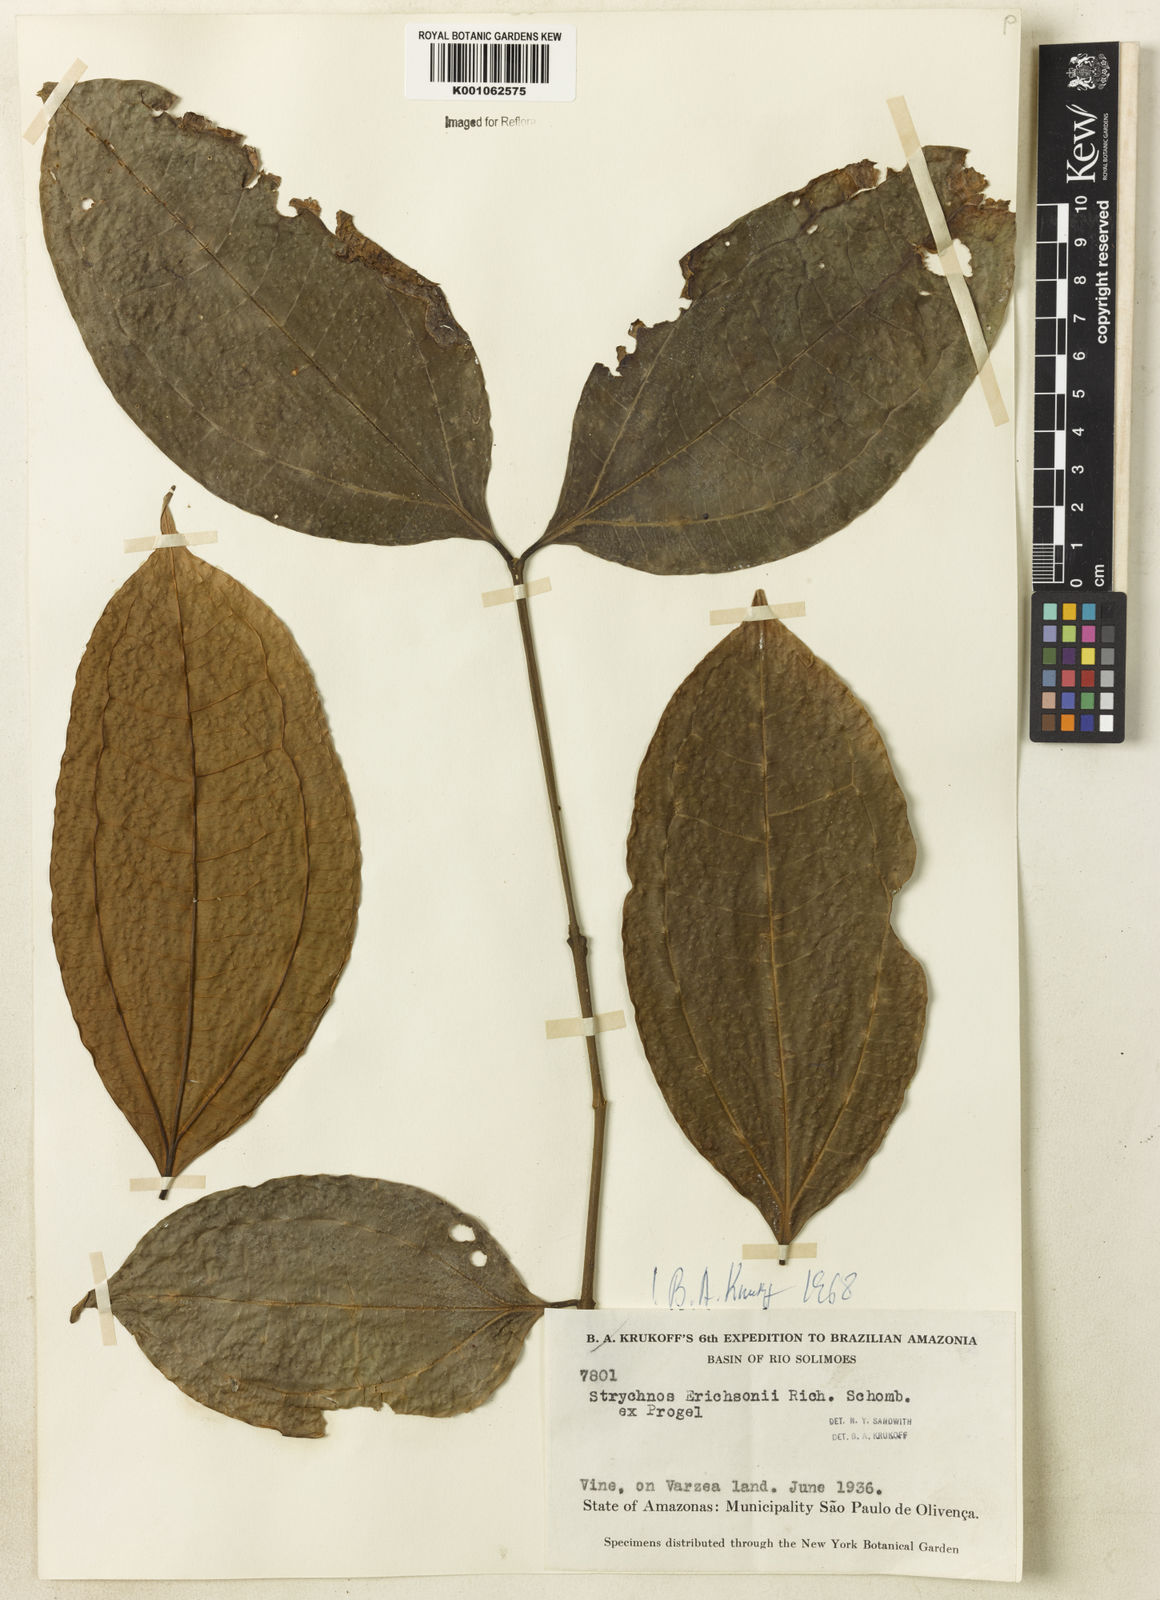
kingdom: Plantae
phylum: Tracheophyta
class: Magnoliopsida
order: Gentianales
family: Loganiaceae
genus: Strychnos
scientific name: Strychnos erichsonii
